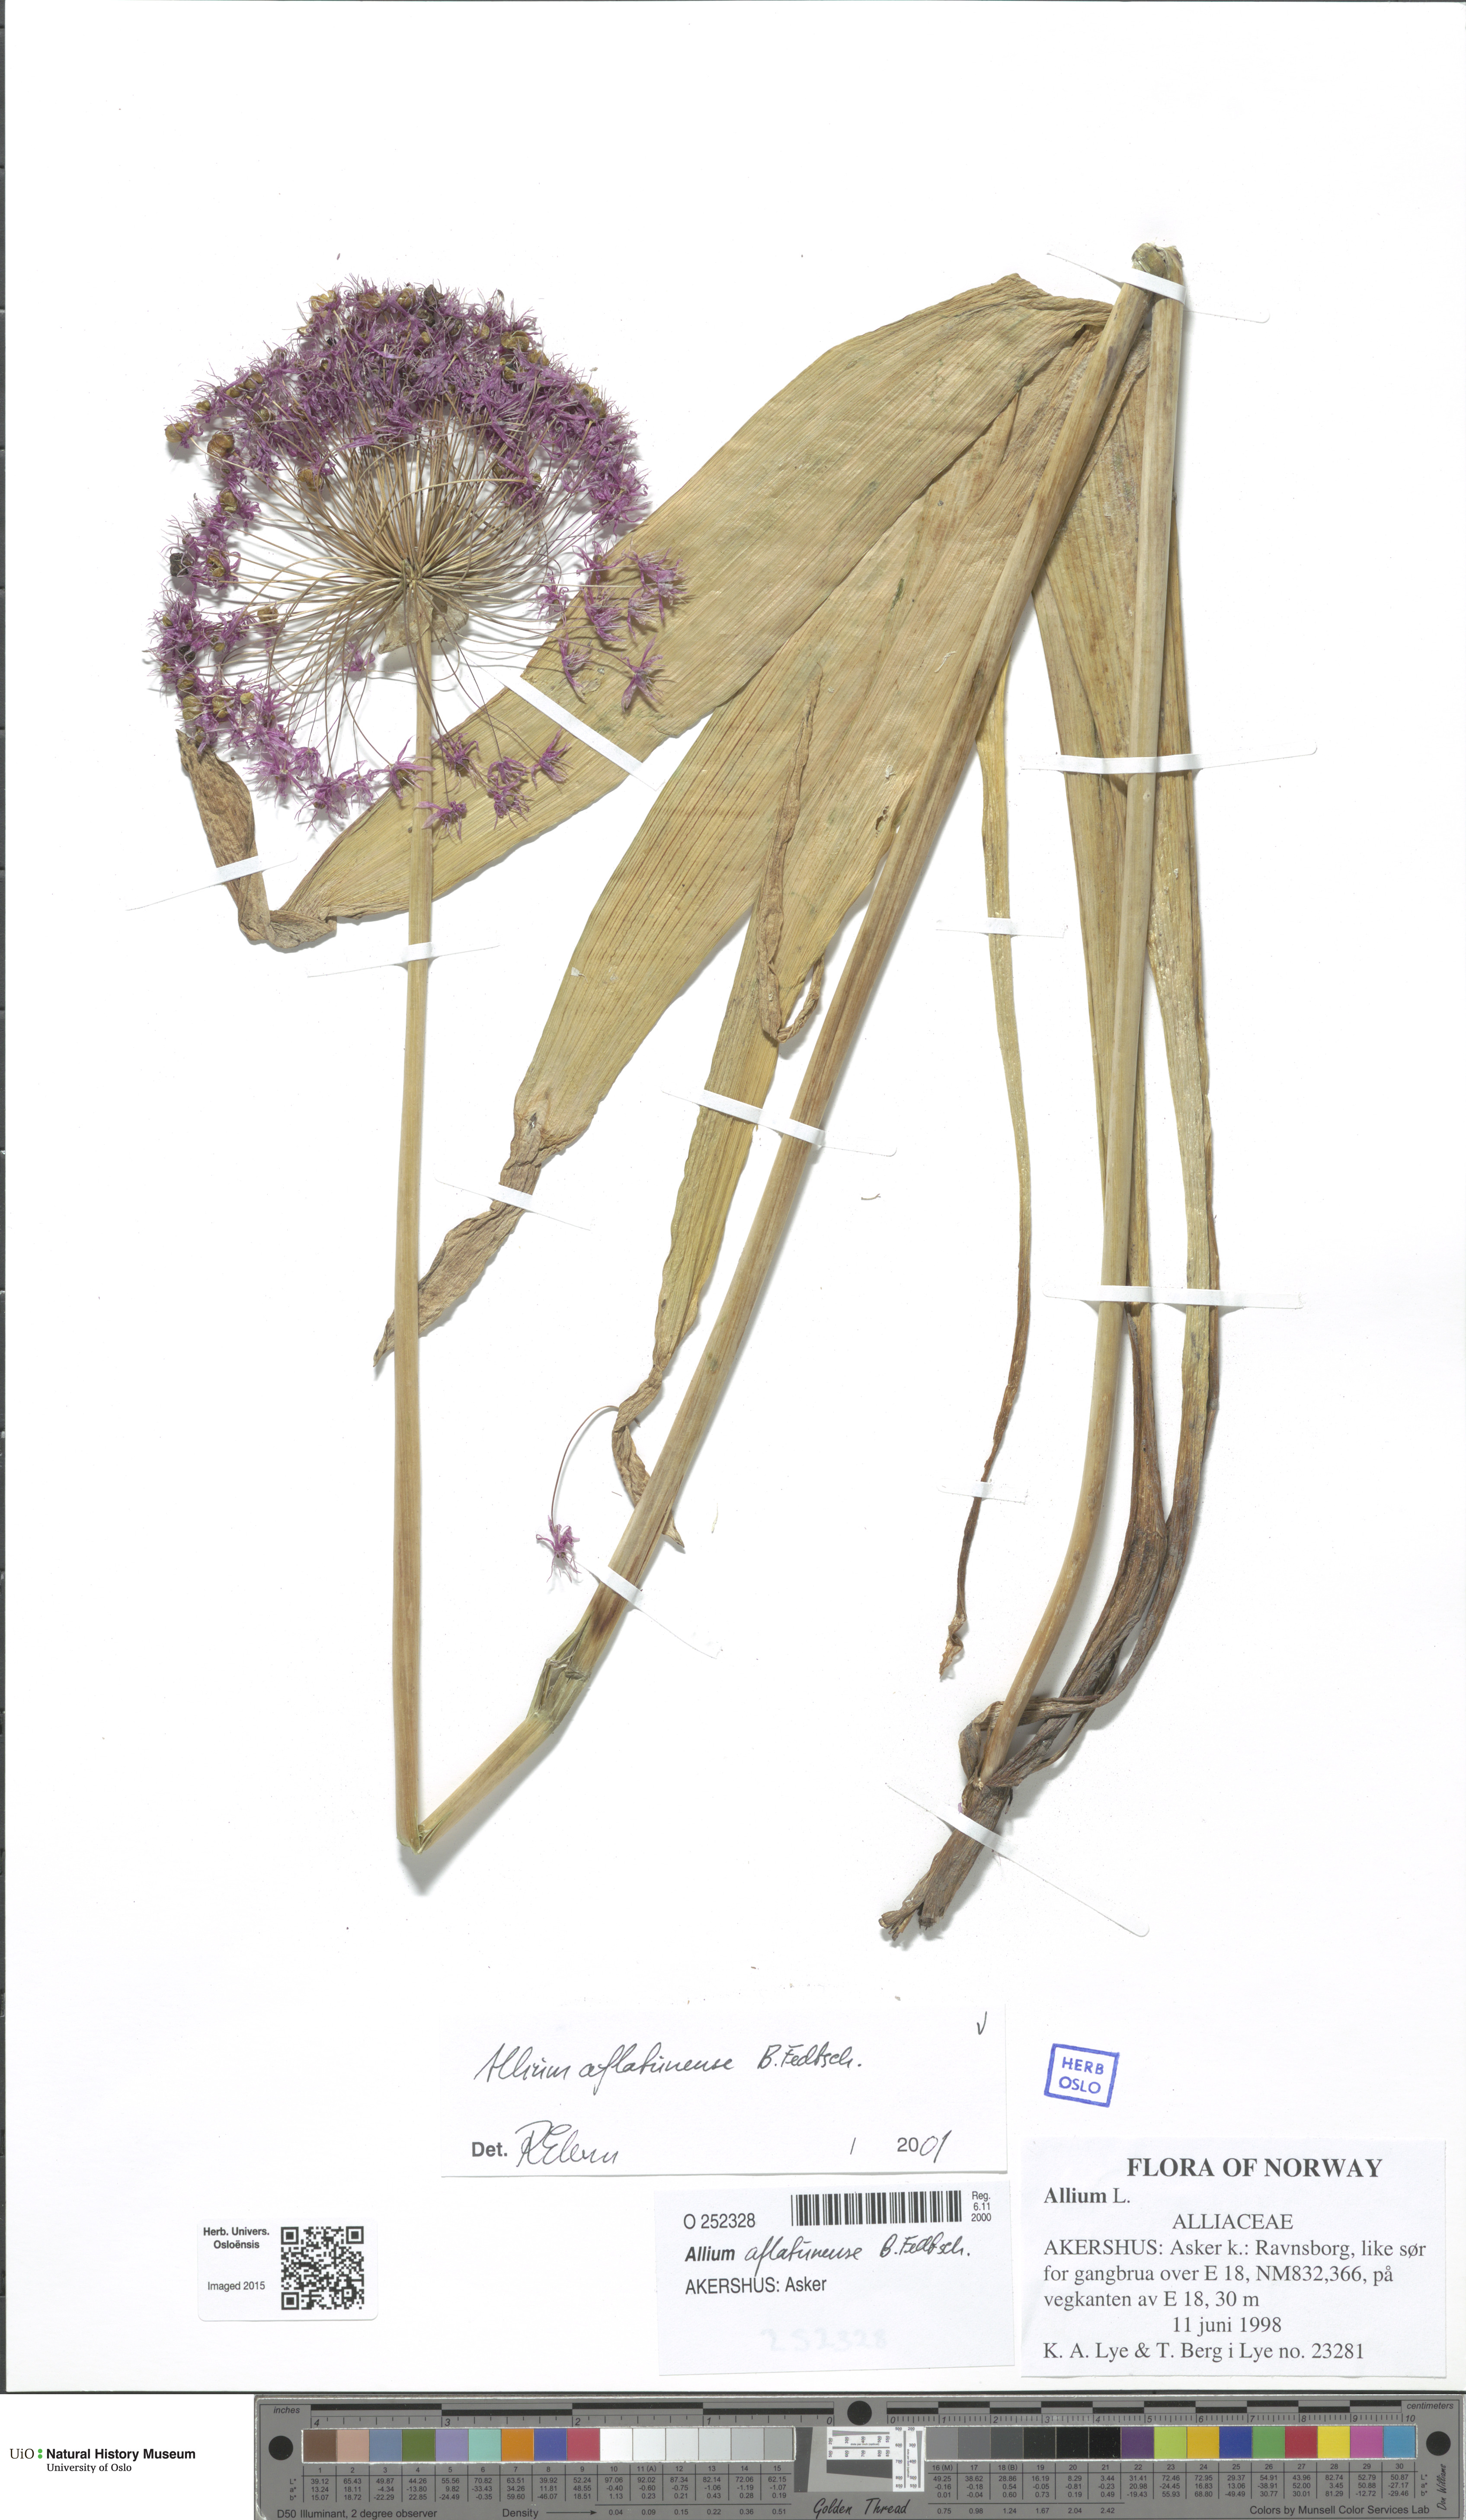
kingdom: Plantae
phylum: Tracheophyta
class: Liliopsida
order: Asparagales
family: Amaryllidaceae
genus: Allium
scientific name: Allium aflatunense
